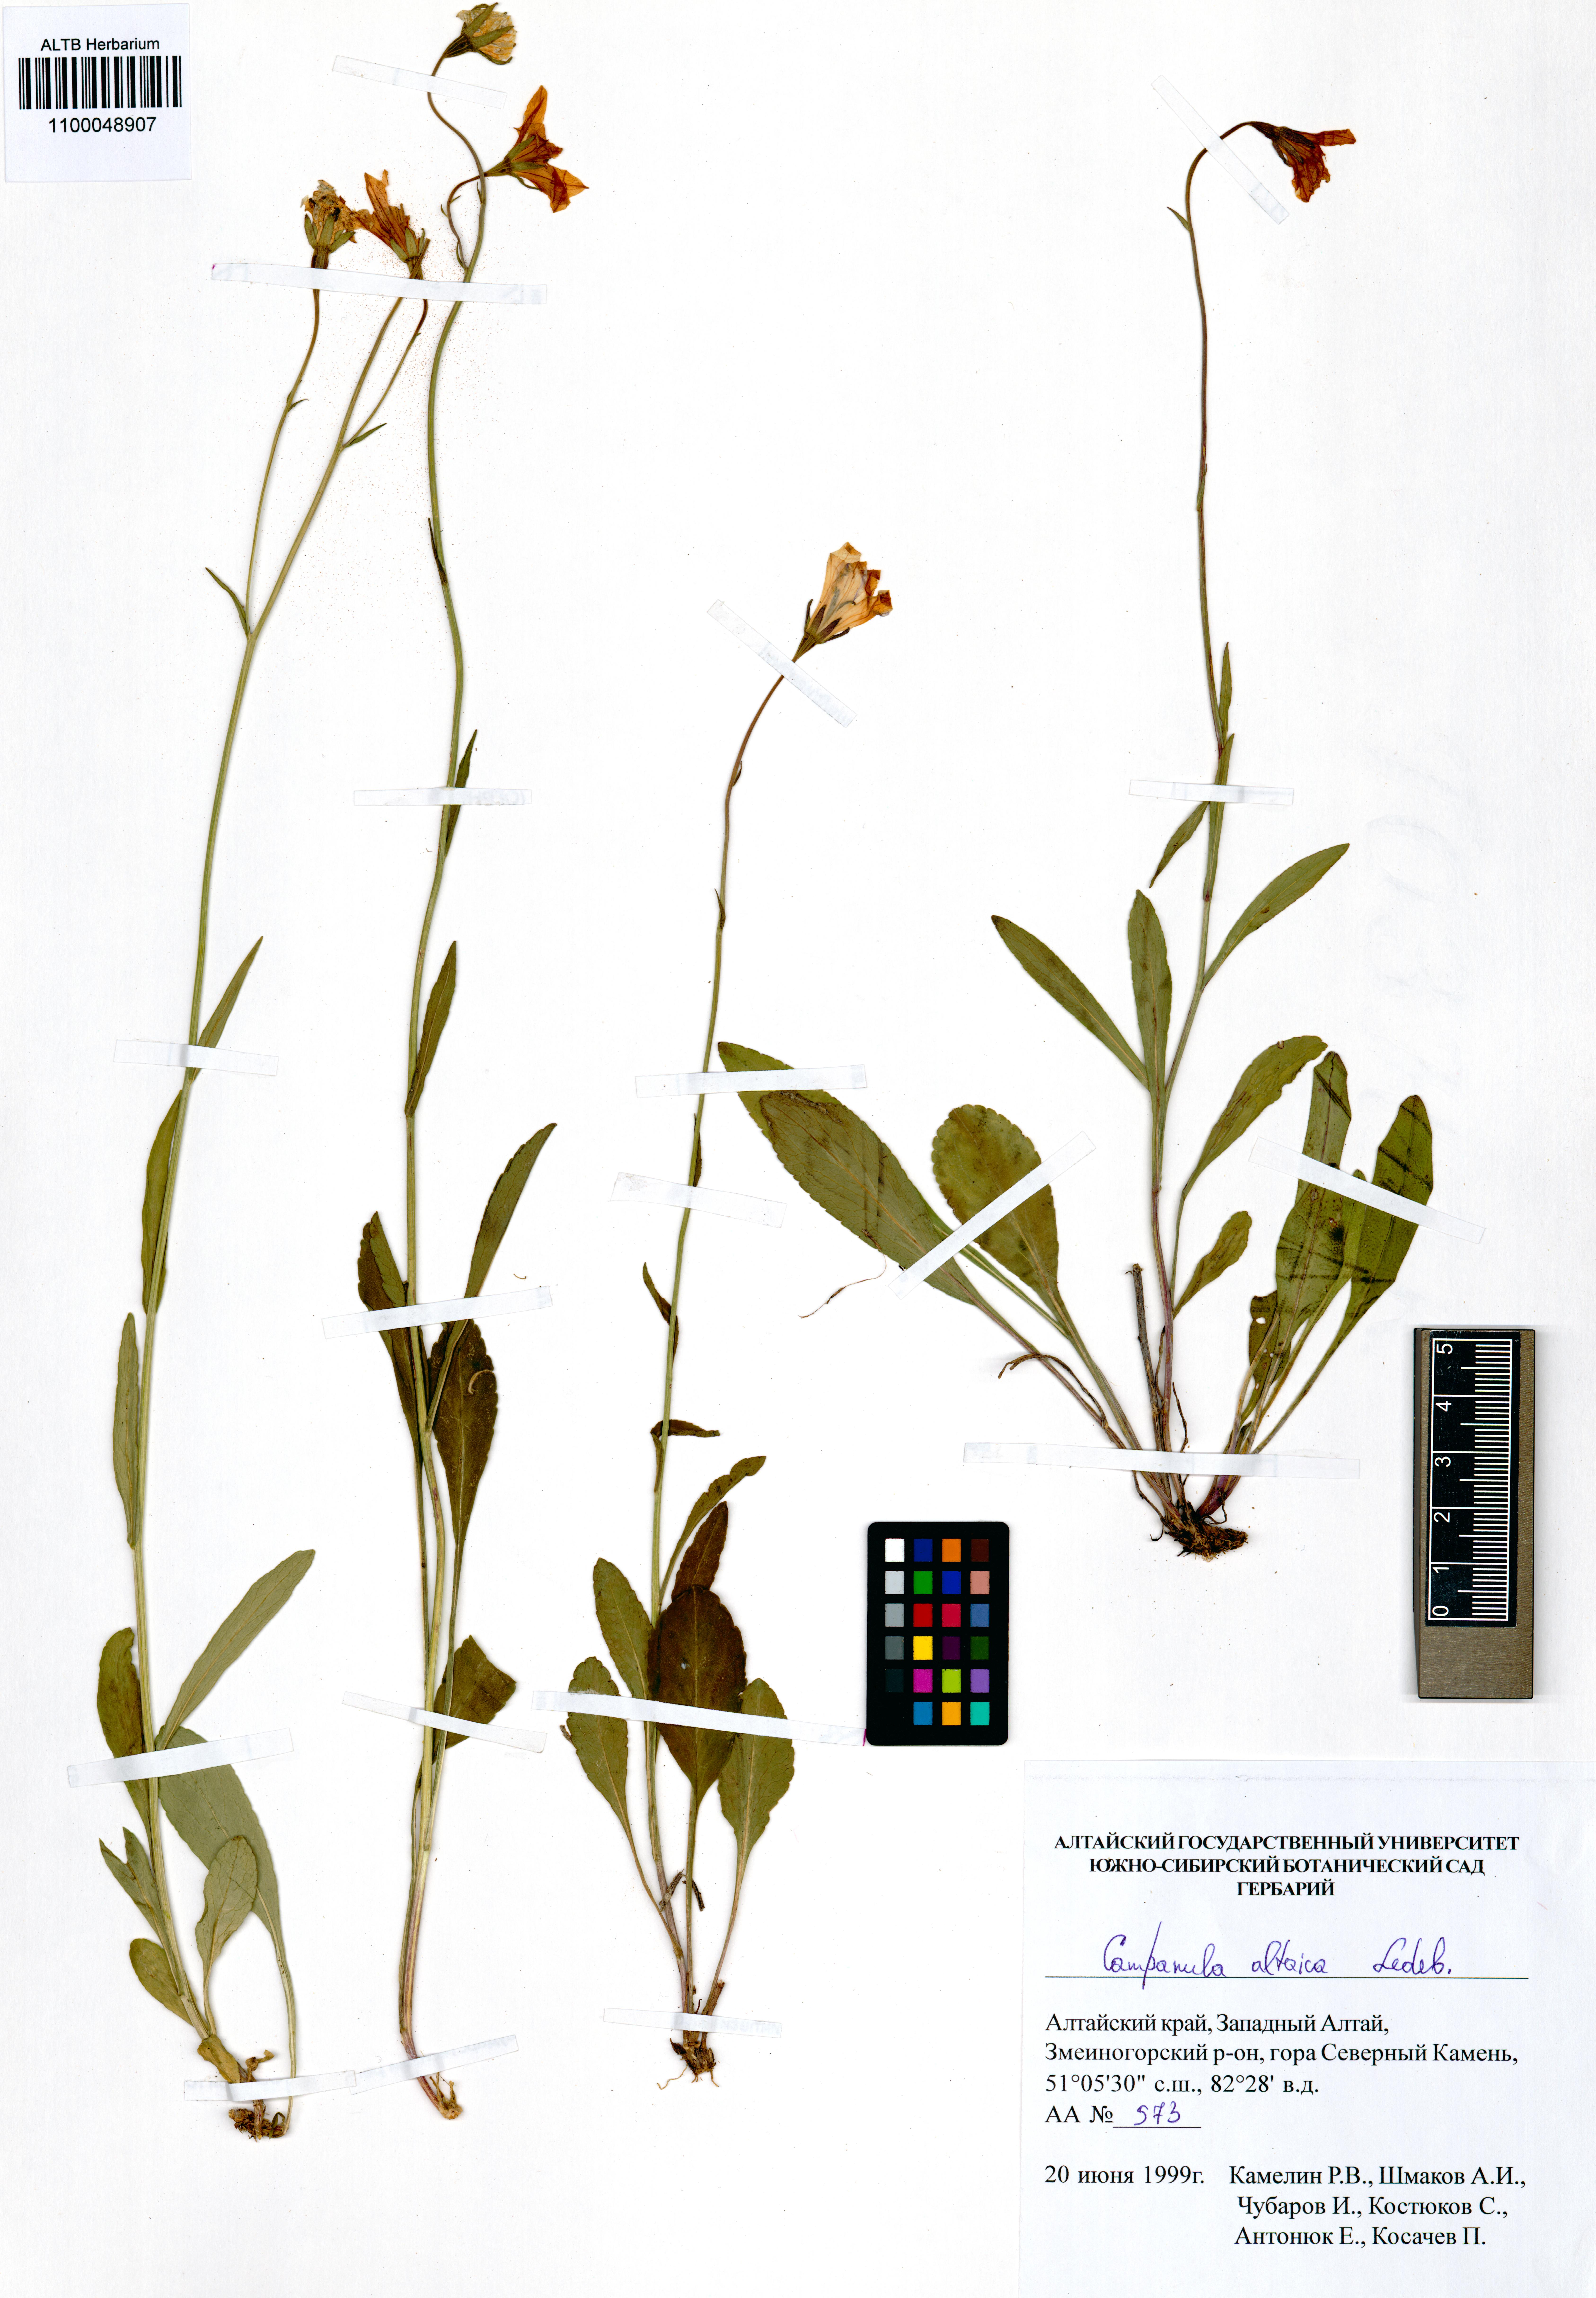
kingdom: Plantae
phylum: Tracheophyta
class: Magnoliopsida
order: Asterales
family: Campanulaceae
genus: Campanula
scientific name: Campanula stevenii
